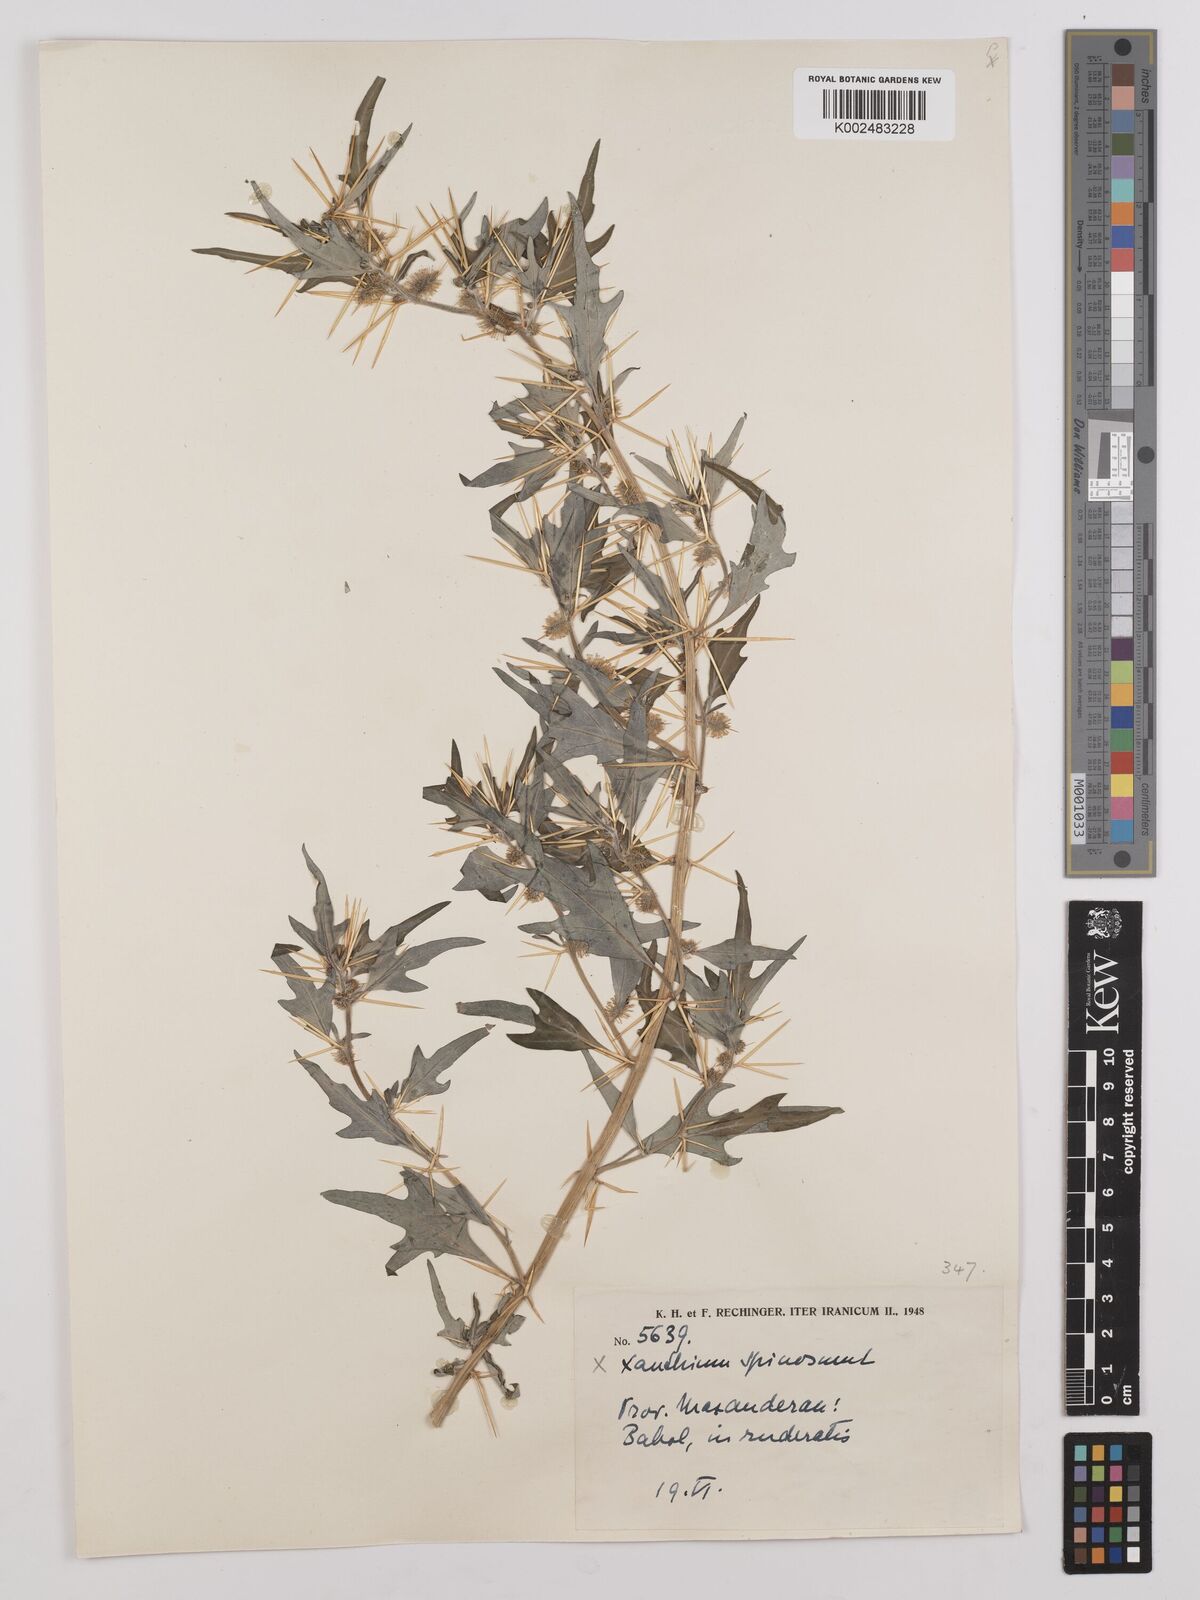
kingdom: Plantae
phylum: Tracheophyta
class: Magnoliopsida
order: Asterales
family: Asteraceae
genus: Xanthium
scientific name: Xanthium spinosum
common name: Spiny cocklebur
